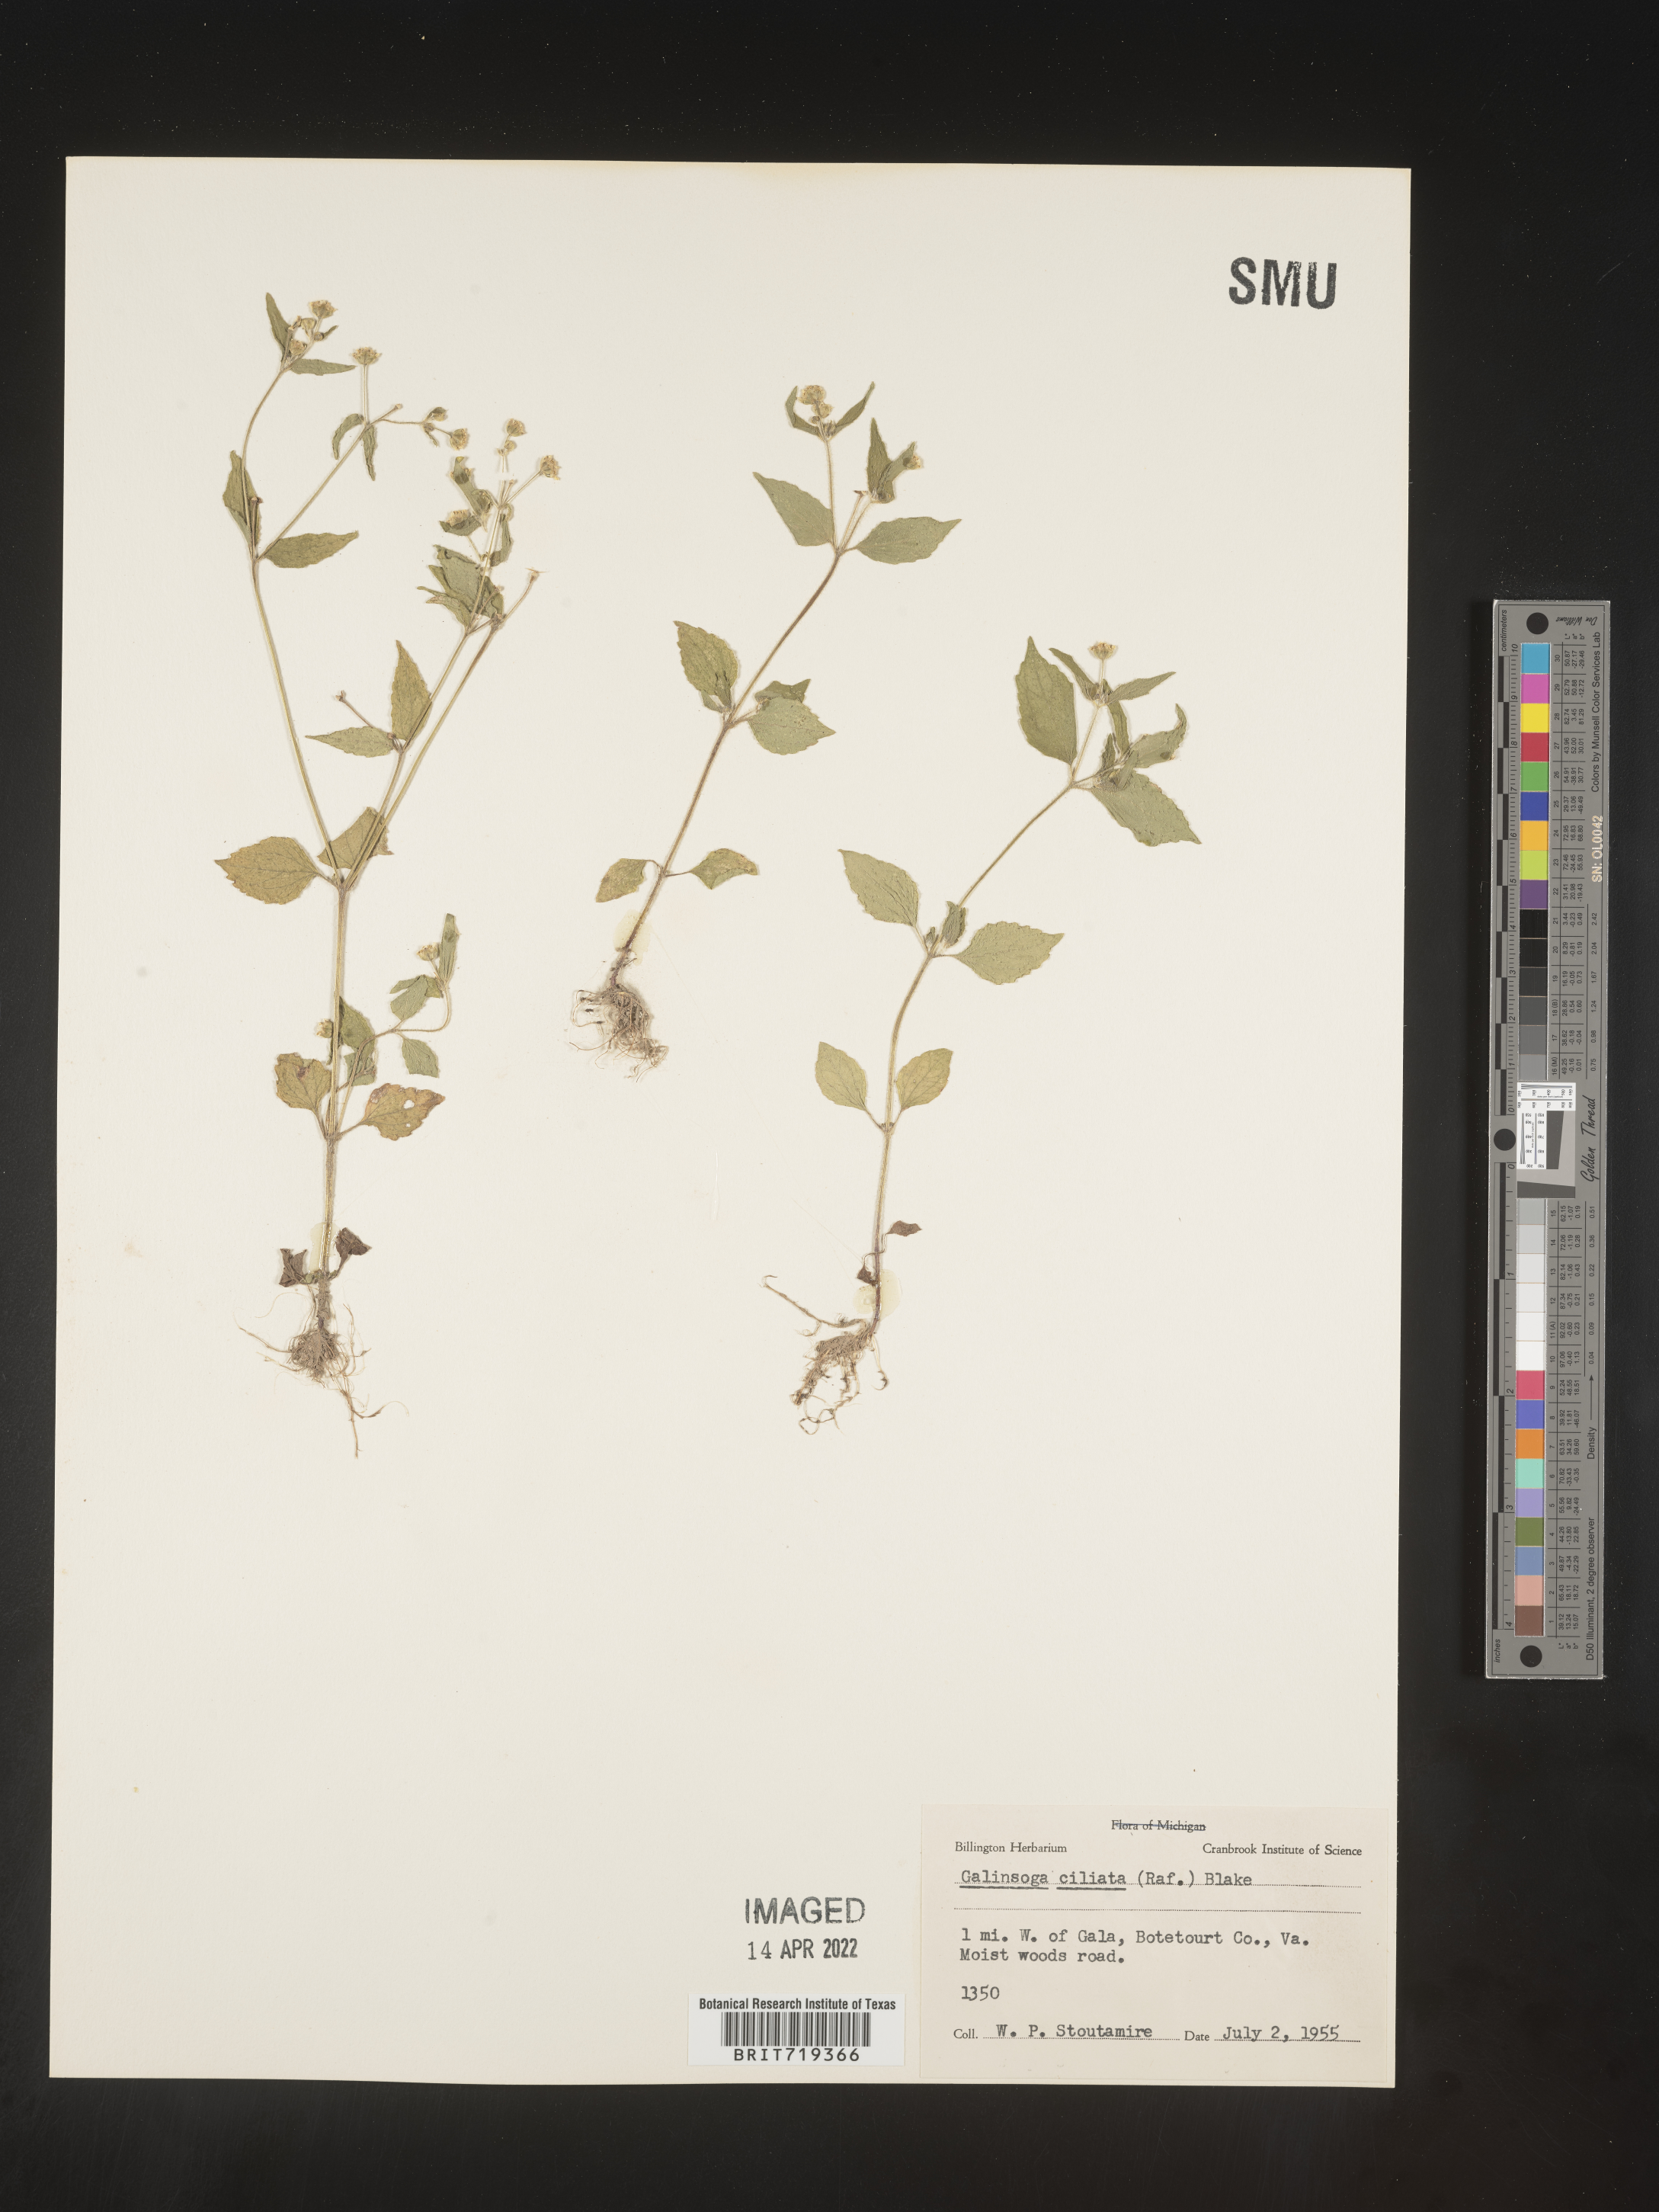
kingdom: Plantae
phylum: Tracheophyta
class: Magnoliopsida
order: Asterales
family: Asteraceae
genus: Galinsoga
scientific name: Galinsoga quadriradiata
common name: Shaggy soldier
